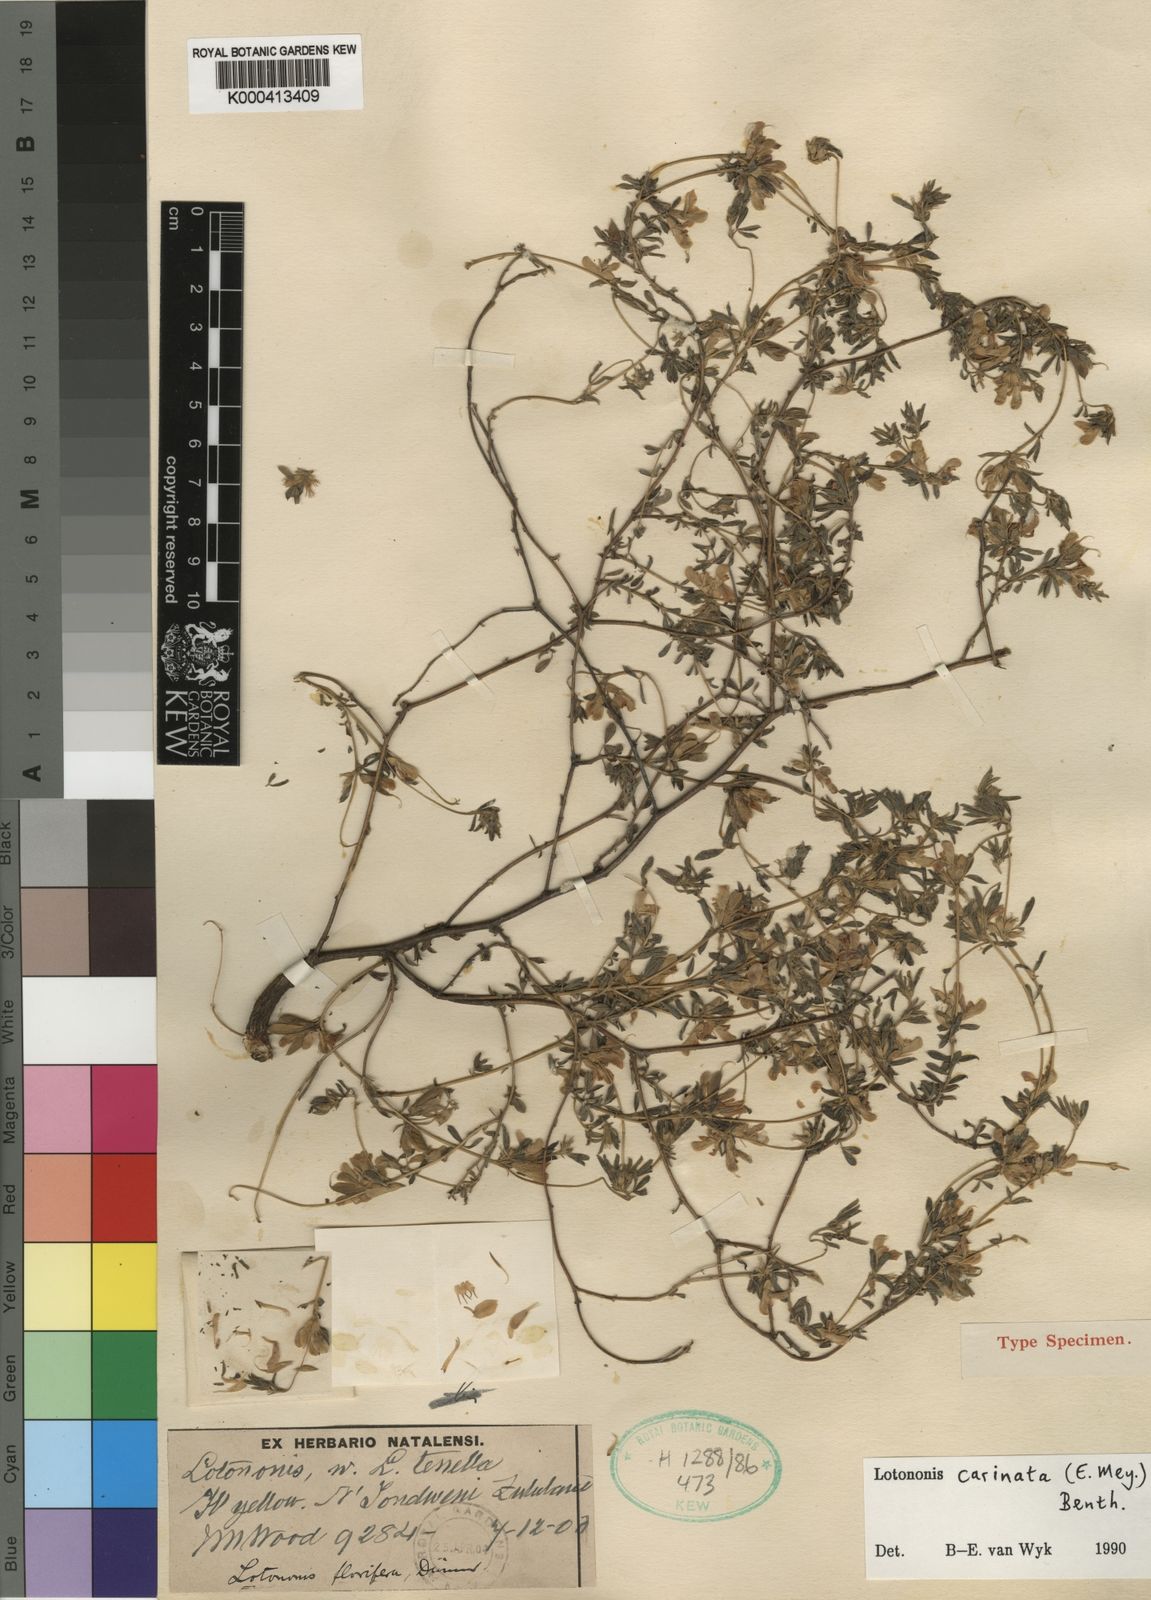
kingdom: Plantae
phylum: Tracheophyta
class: Magnoliopsida
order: Fabales
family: Fabaceae
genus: Leobordea
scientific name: Leobordea carinata
